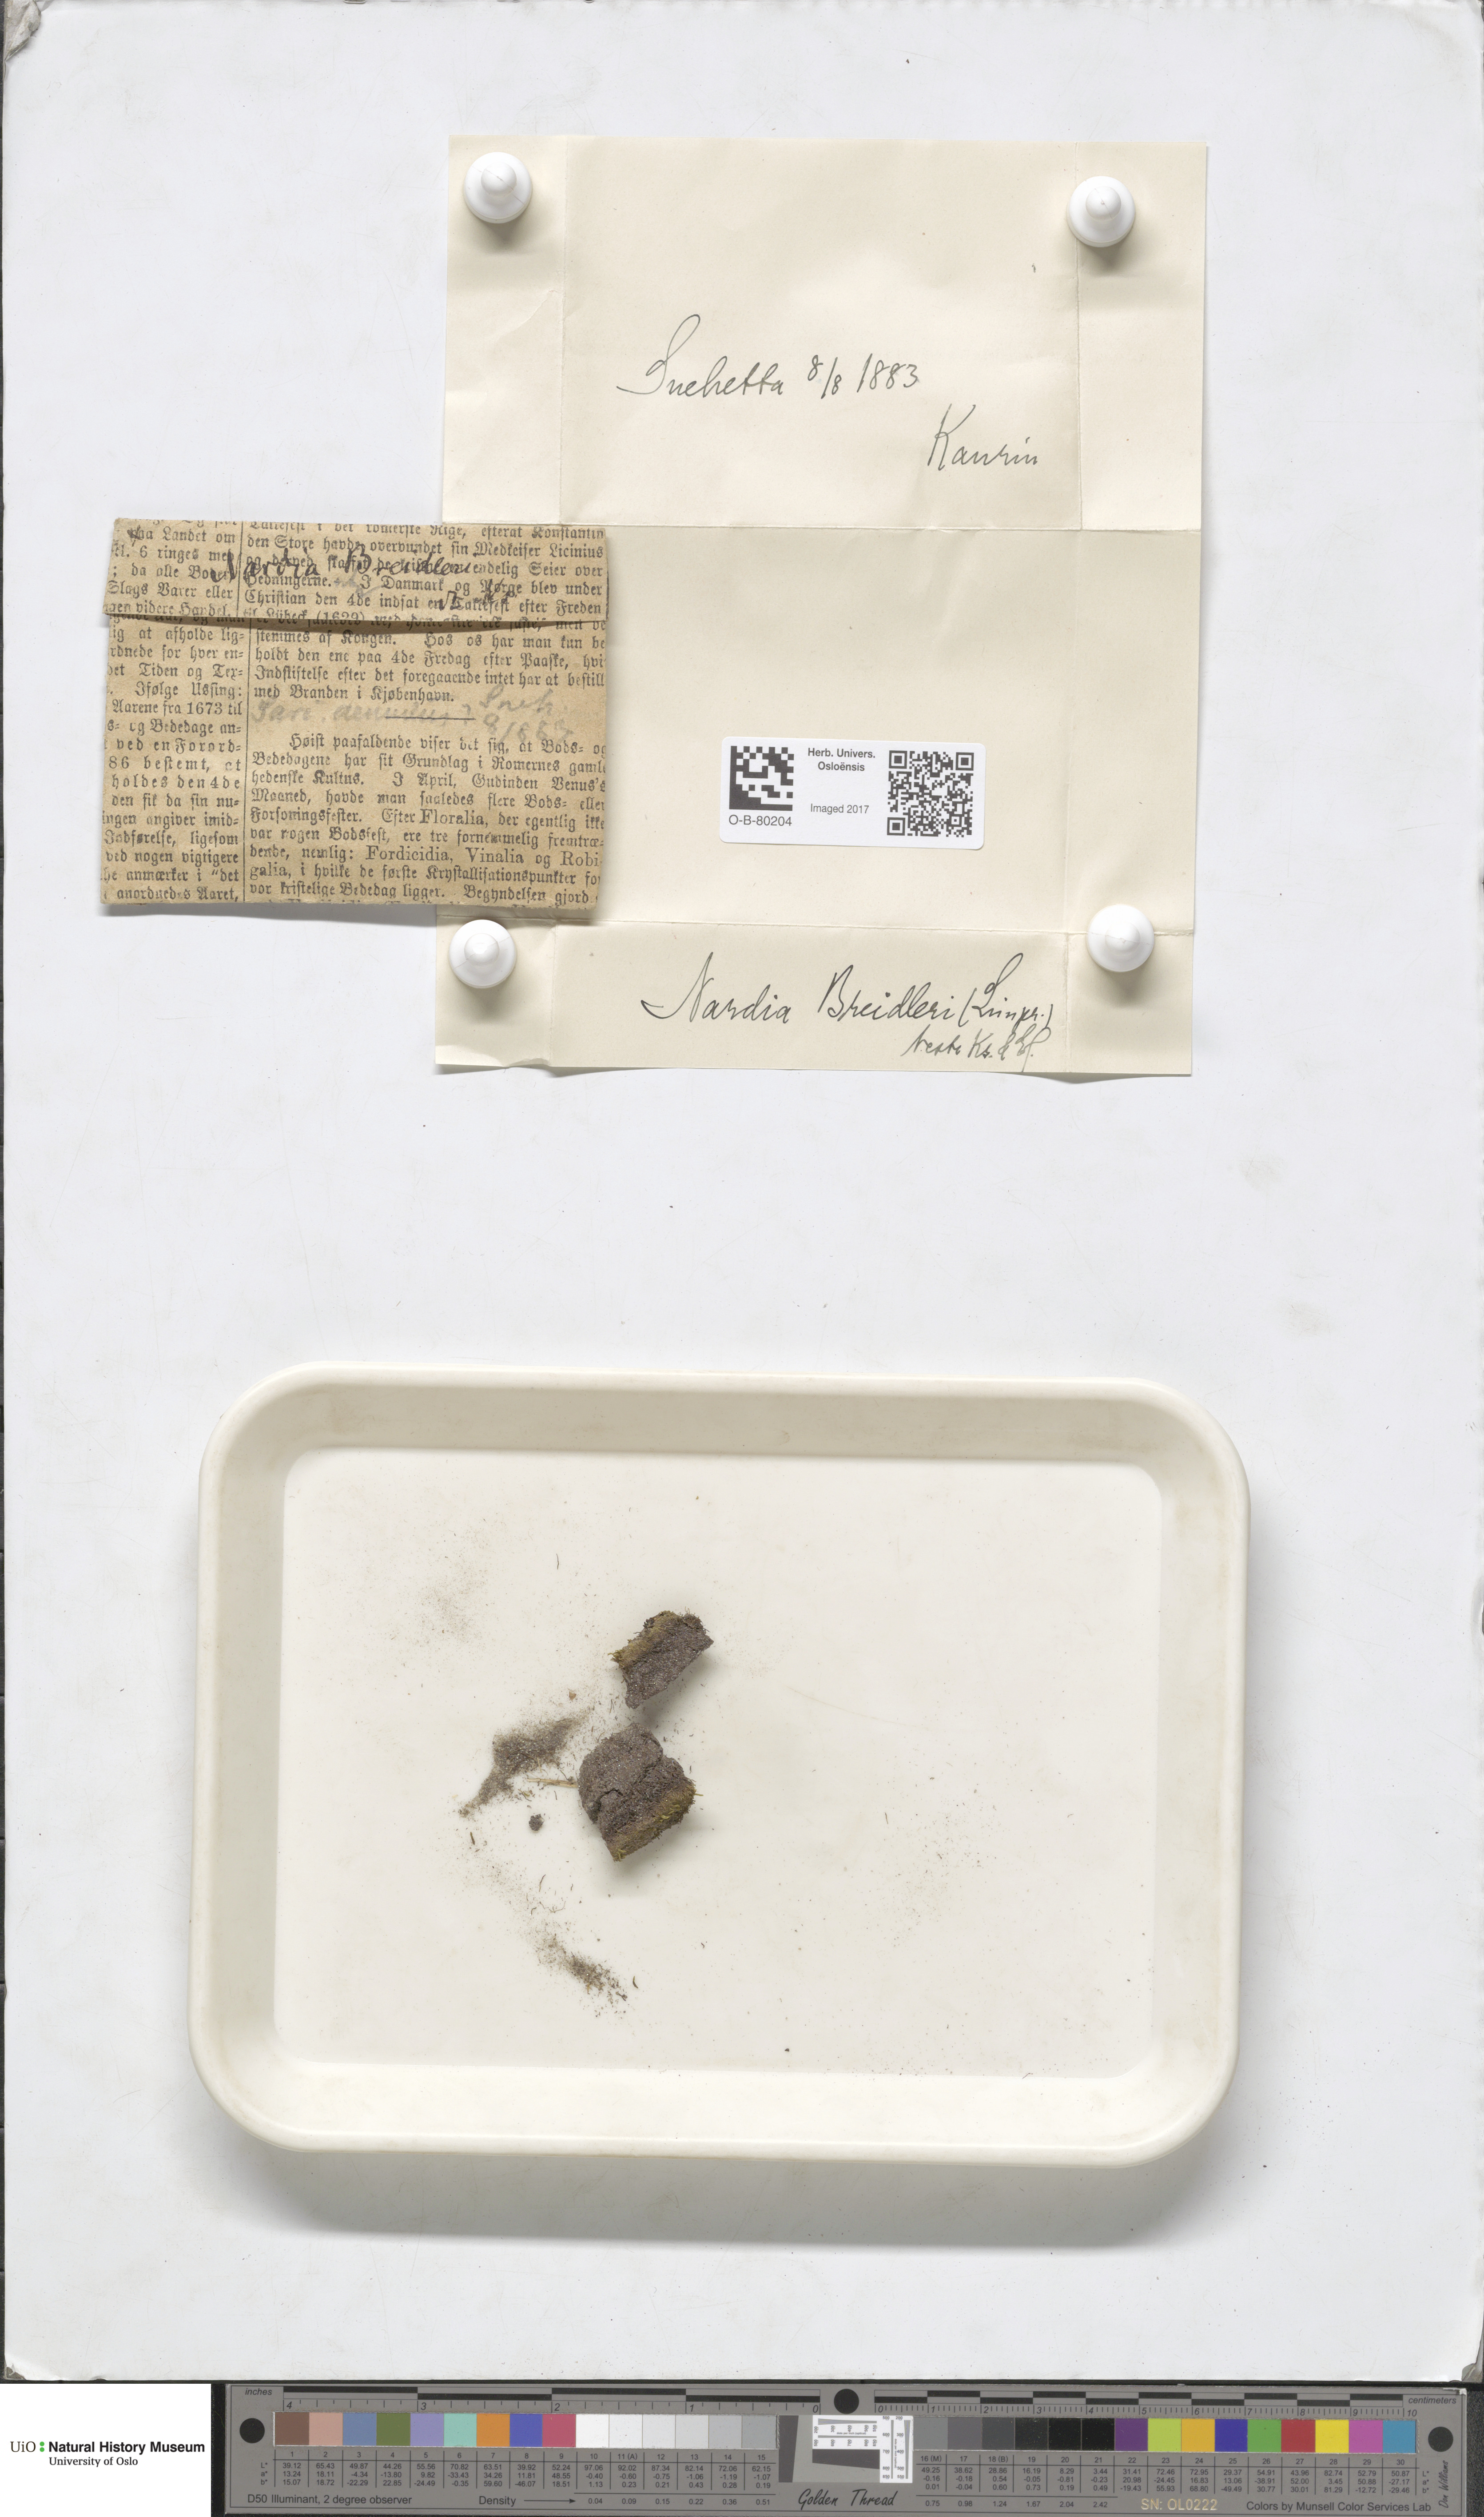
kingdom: Plantae
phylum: Marchantiophyta
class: Jungermanniopsida
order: Jungermanniales
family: Gymnomitriaceae
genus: Nardia
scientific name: Nardia breidleri
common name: Book flapwort
